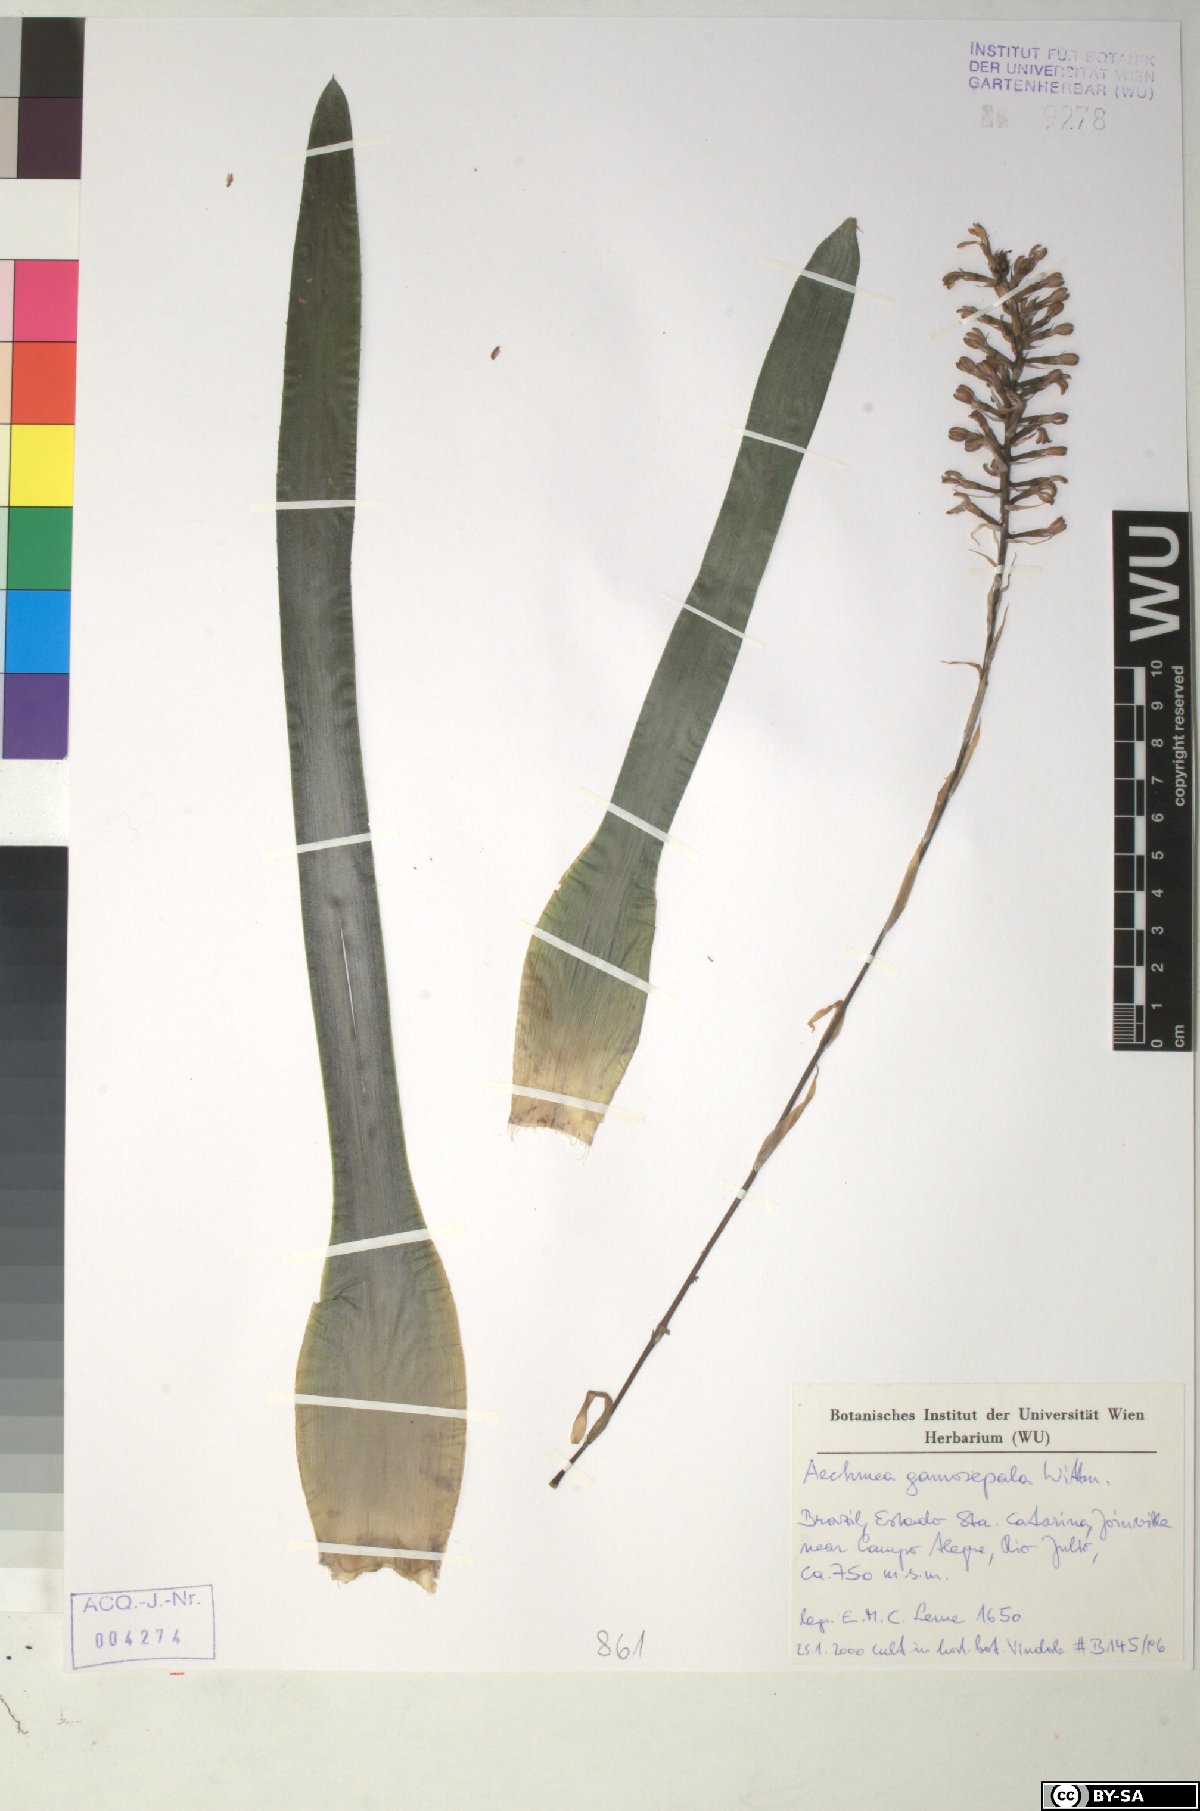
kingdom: Plantae
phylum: Tracheophyta
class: Liliopsida
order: Poales
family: Bromeliaceae
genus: Aechmea
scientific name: Aechmea gamosepala
